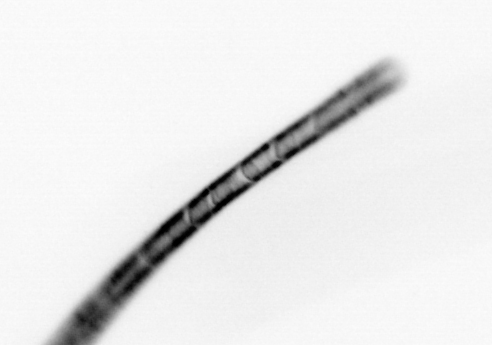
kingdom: Chromista
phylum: Ochrophyta
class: Bacillariophyceae
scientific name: Bacillariophyceae
